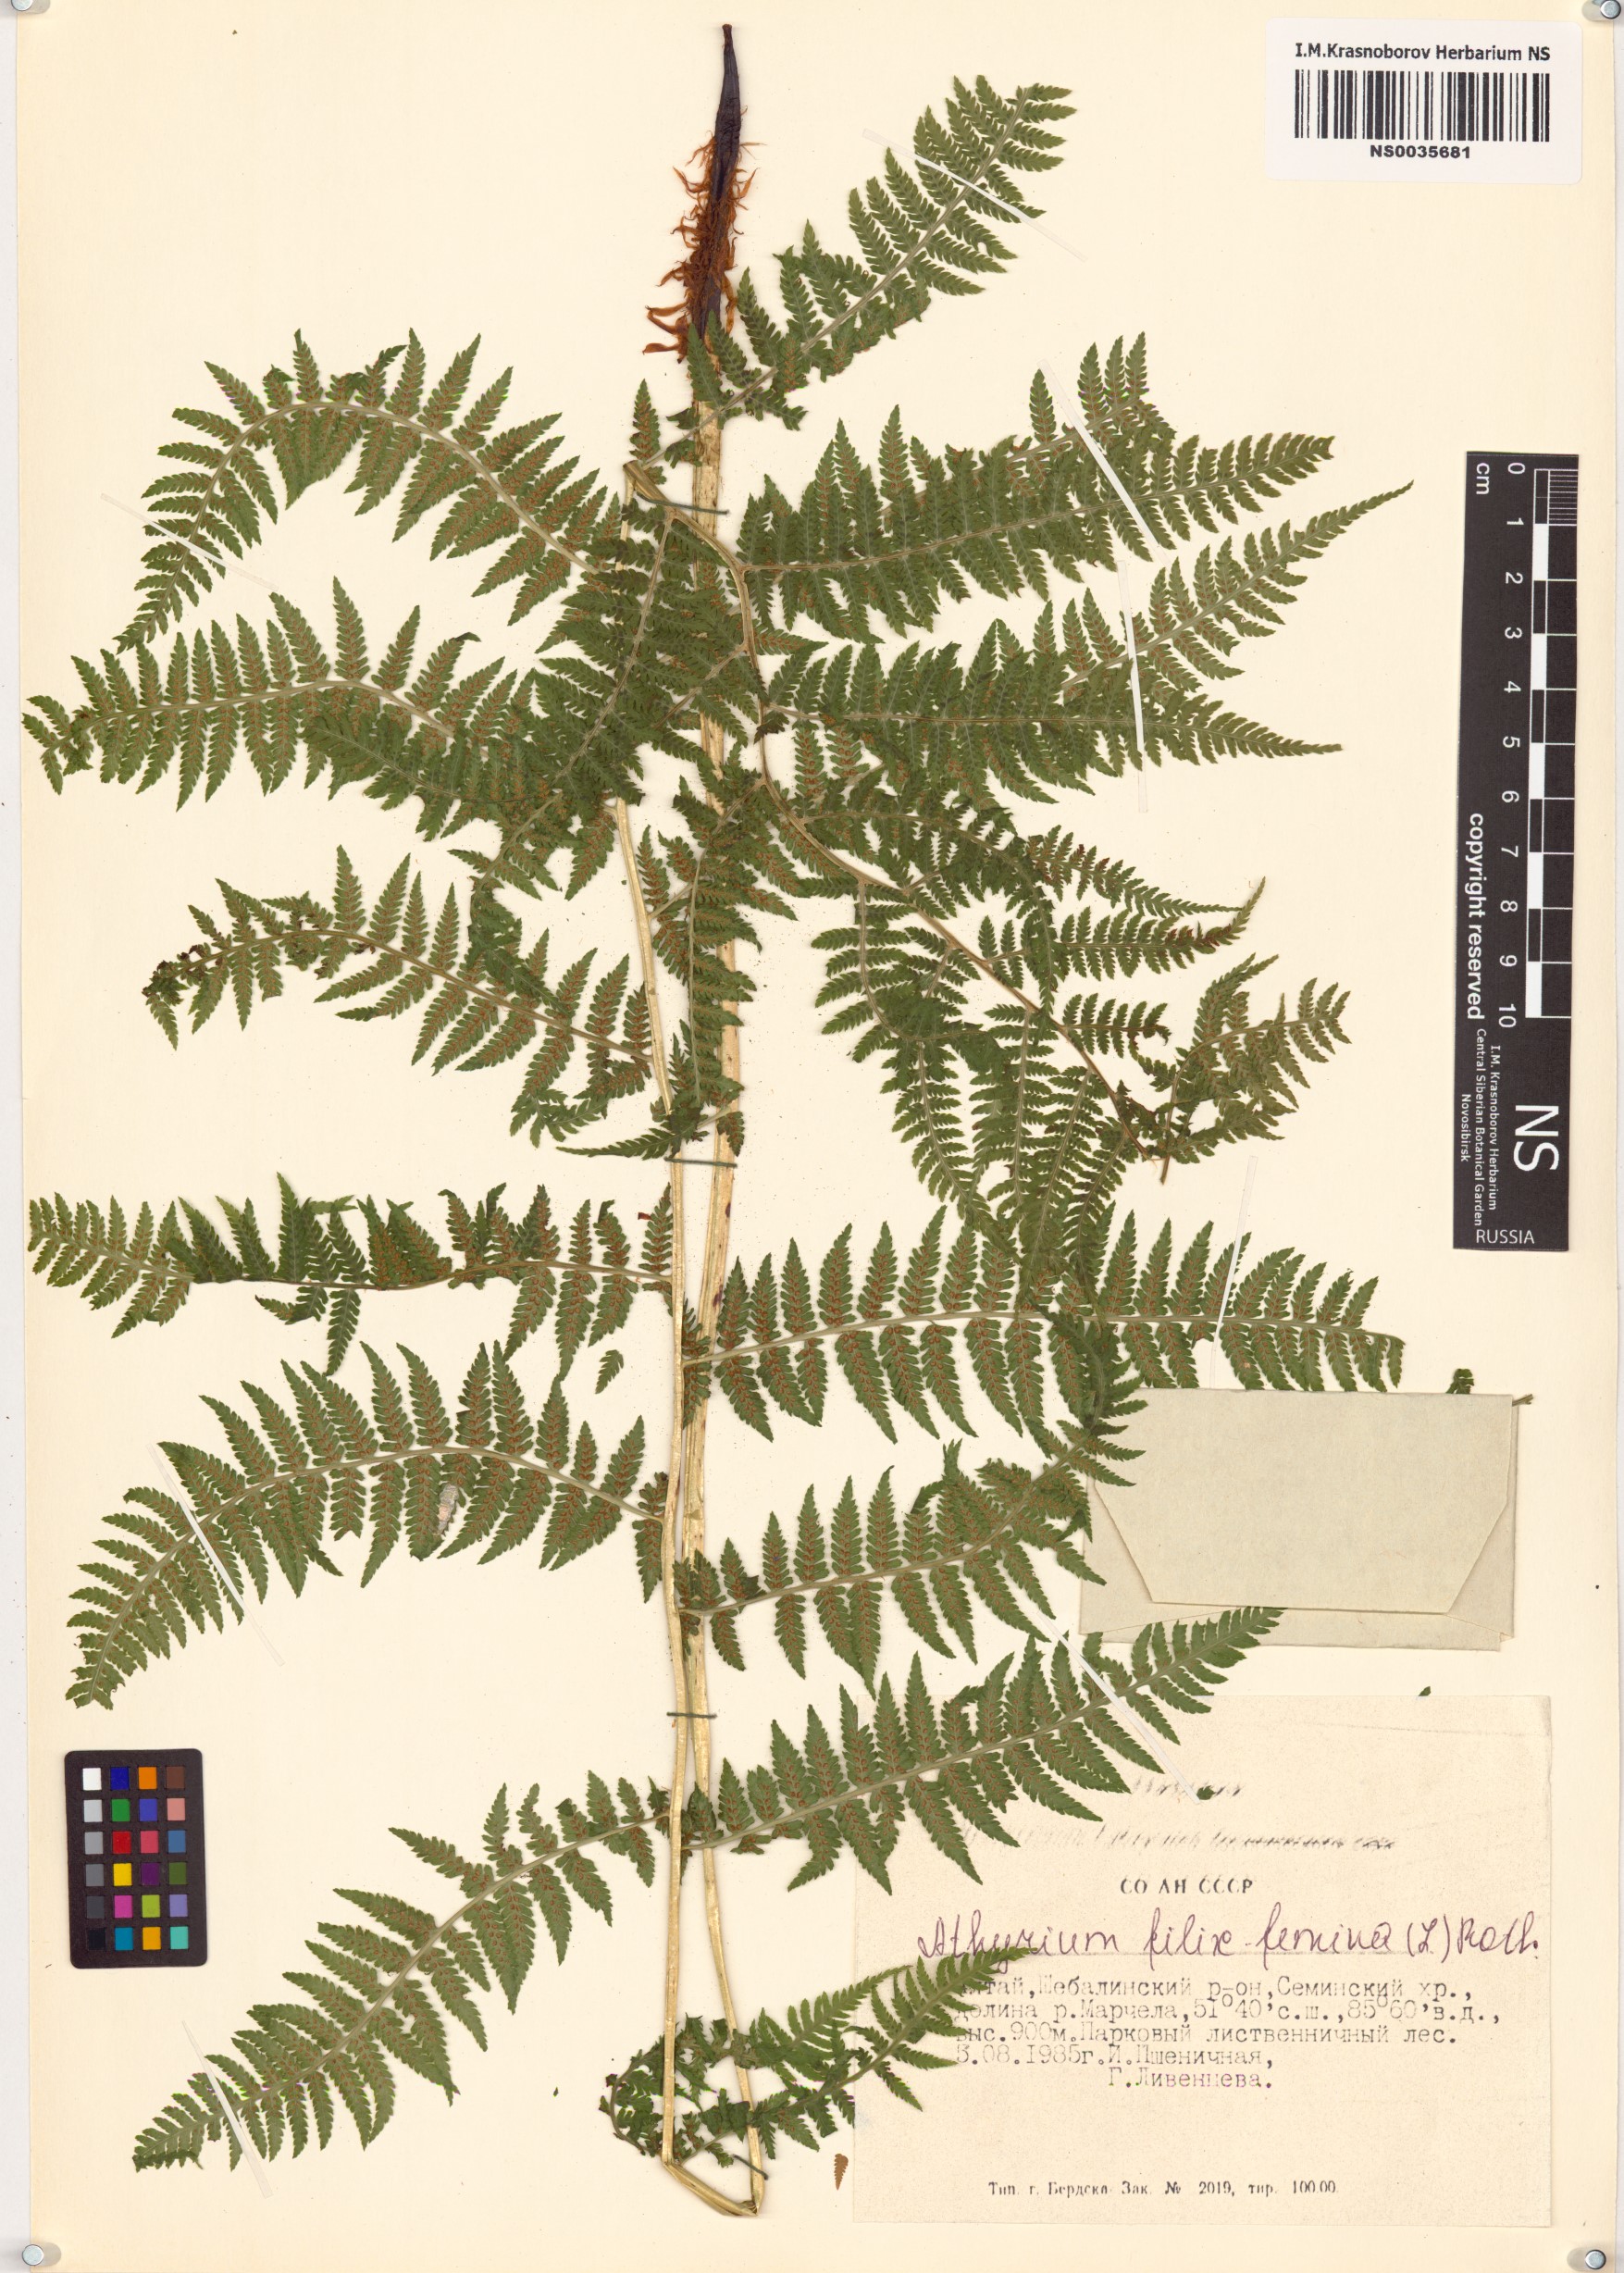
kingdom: Plantae
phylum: Tracheophyta
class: Polypodiopsida
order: Polypodiales
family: Athyriaceae
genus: Athyrium
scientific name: Athyrium filix-femina
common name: Lady fern
